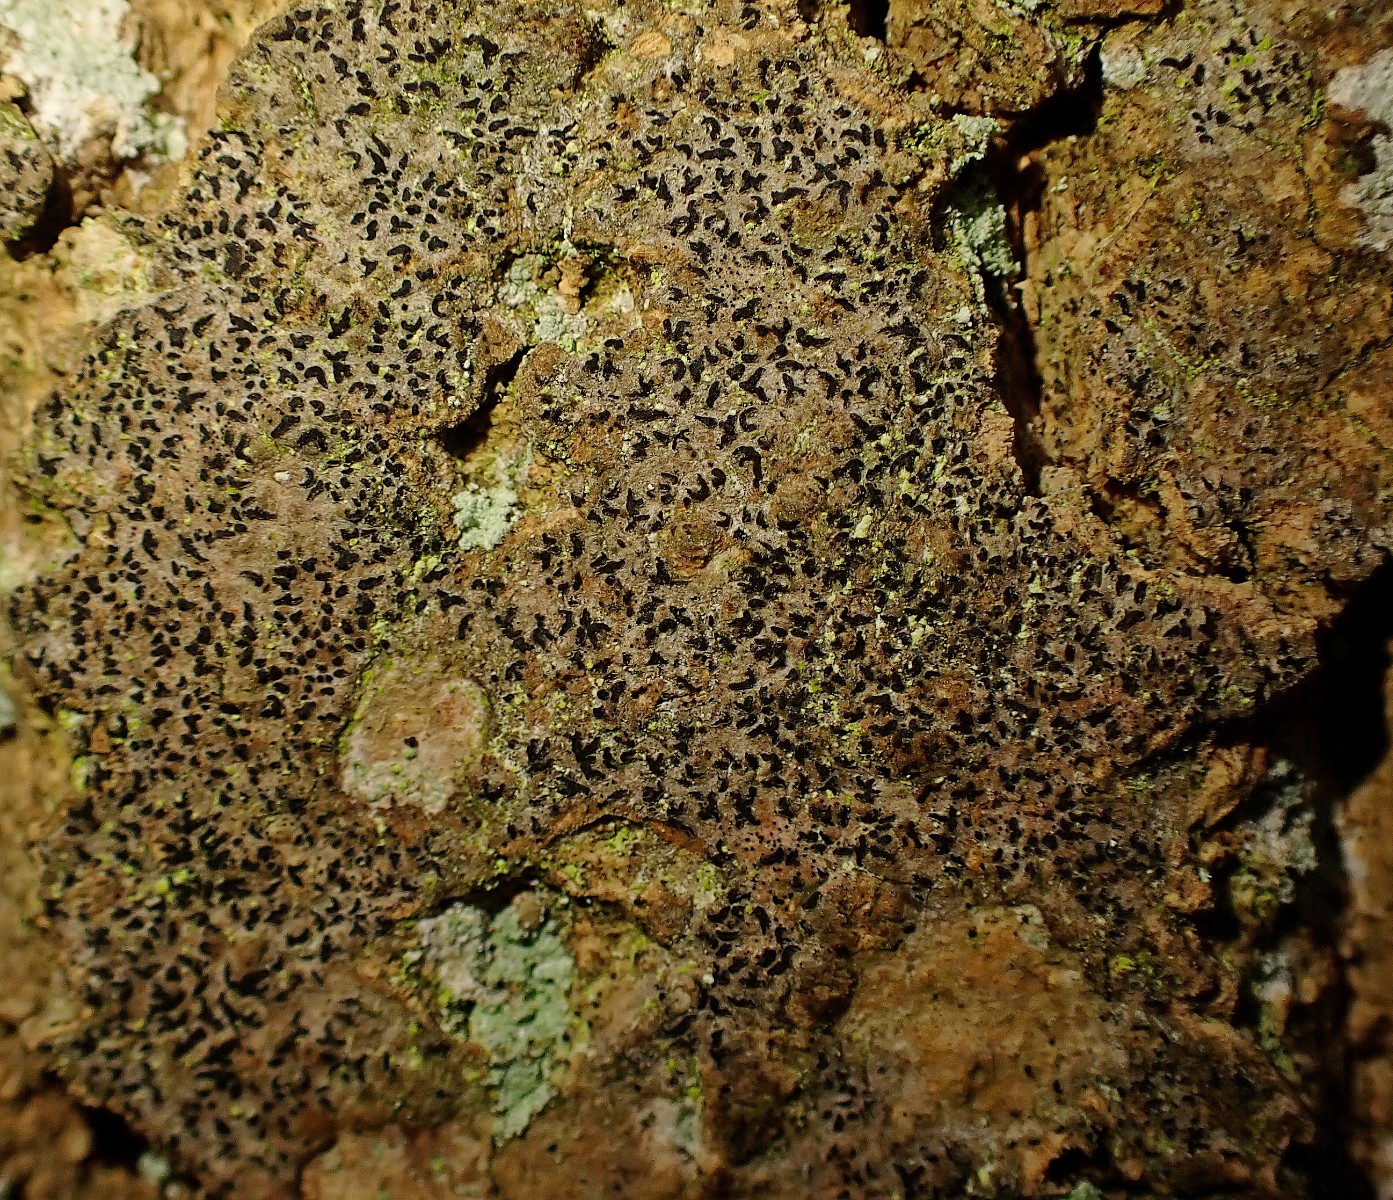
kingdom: Fungi
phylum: Ascomycota
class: Arthoniomycetes
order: Arthoniales
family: Roccellaceae
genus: Pseudoschismatomma
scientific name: Pseudoschismatomma rufescens
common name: brun bogstavlav
